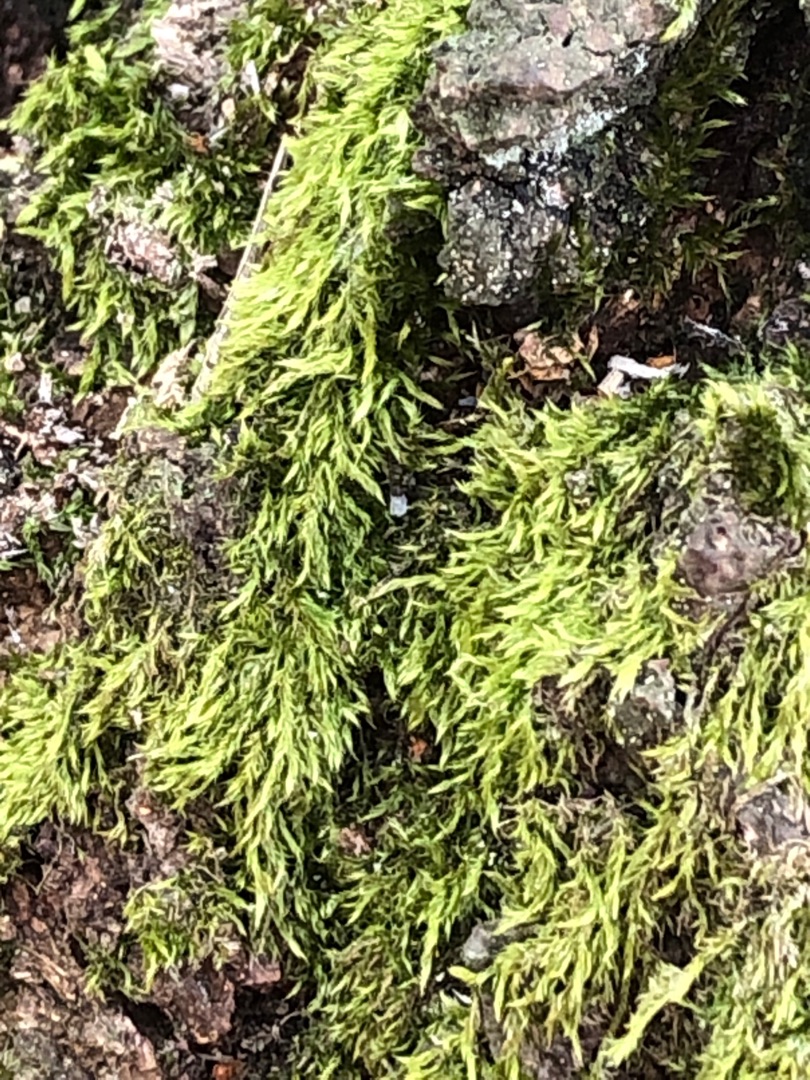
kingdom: Plantae
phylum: Bryophyta
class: Bryopsida
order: Hypnales
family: Hypnaceae
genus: Hypnum
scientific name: Hypnum
